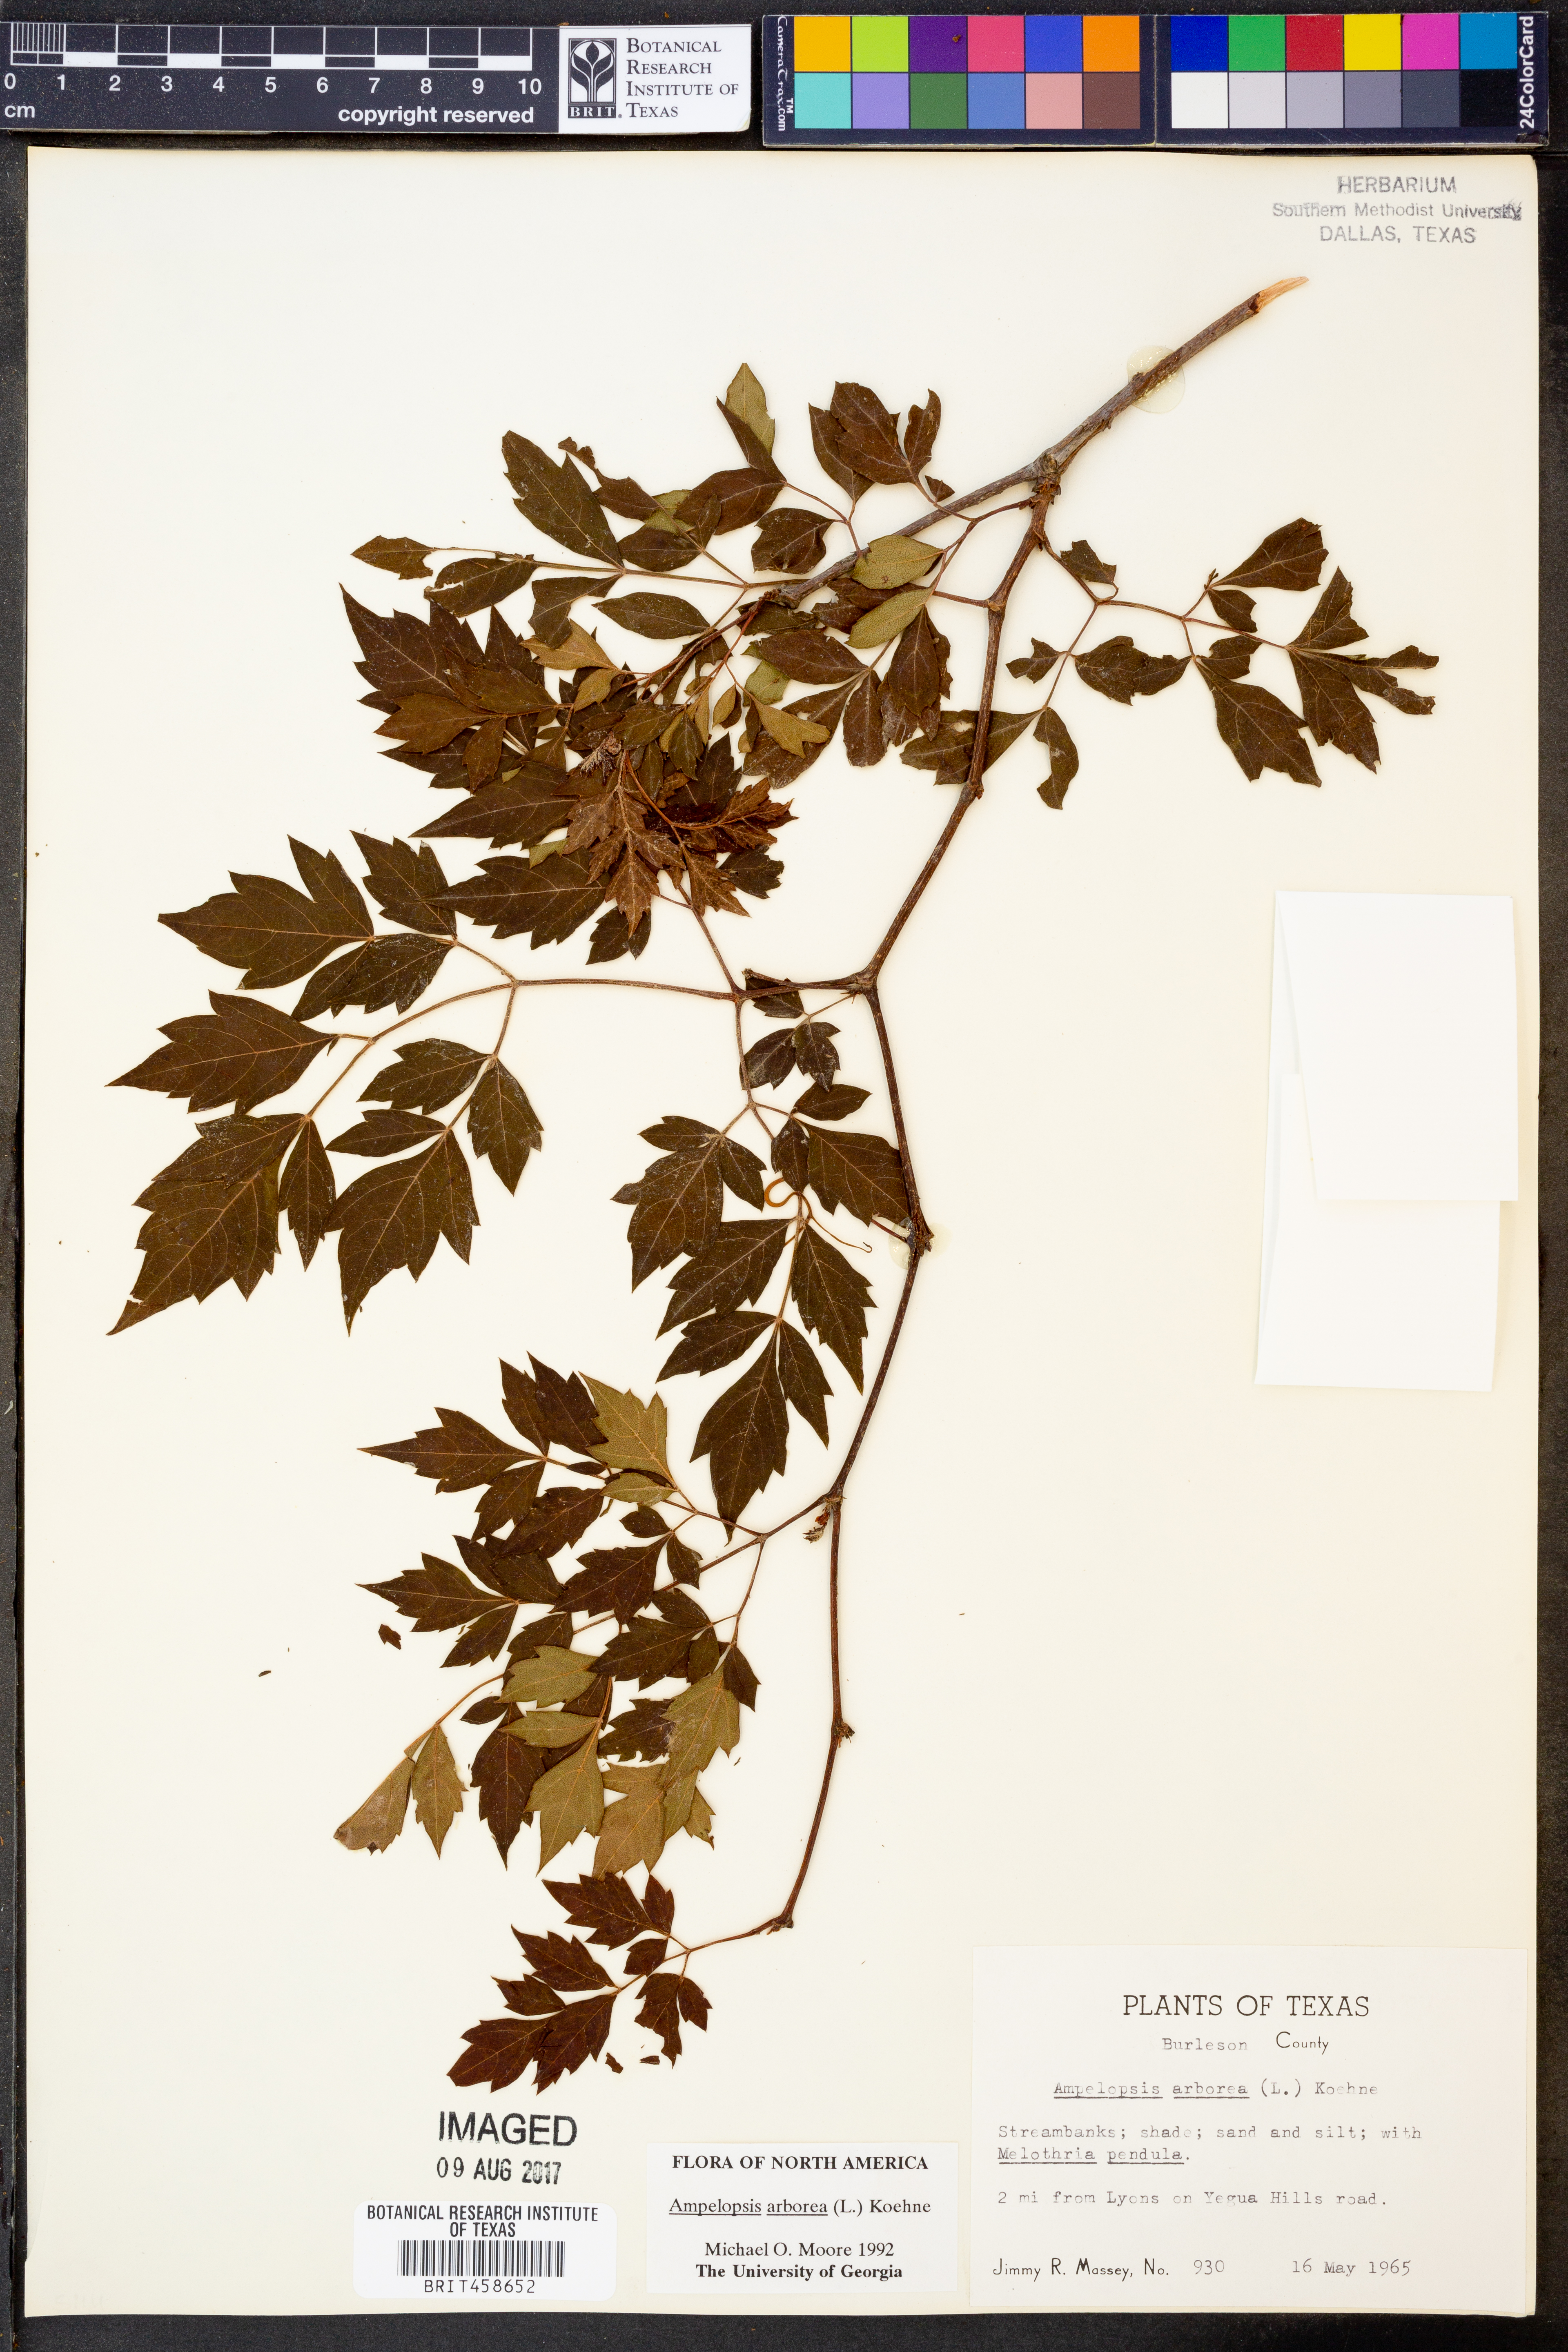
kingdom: Plantae
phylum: Tracheophyta
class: Magnoliopsida
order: Vitales
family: Vitaceae
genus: Nekemias
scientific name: Nekemias arborea
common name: Peppervine
